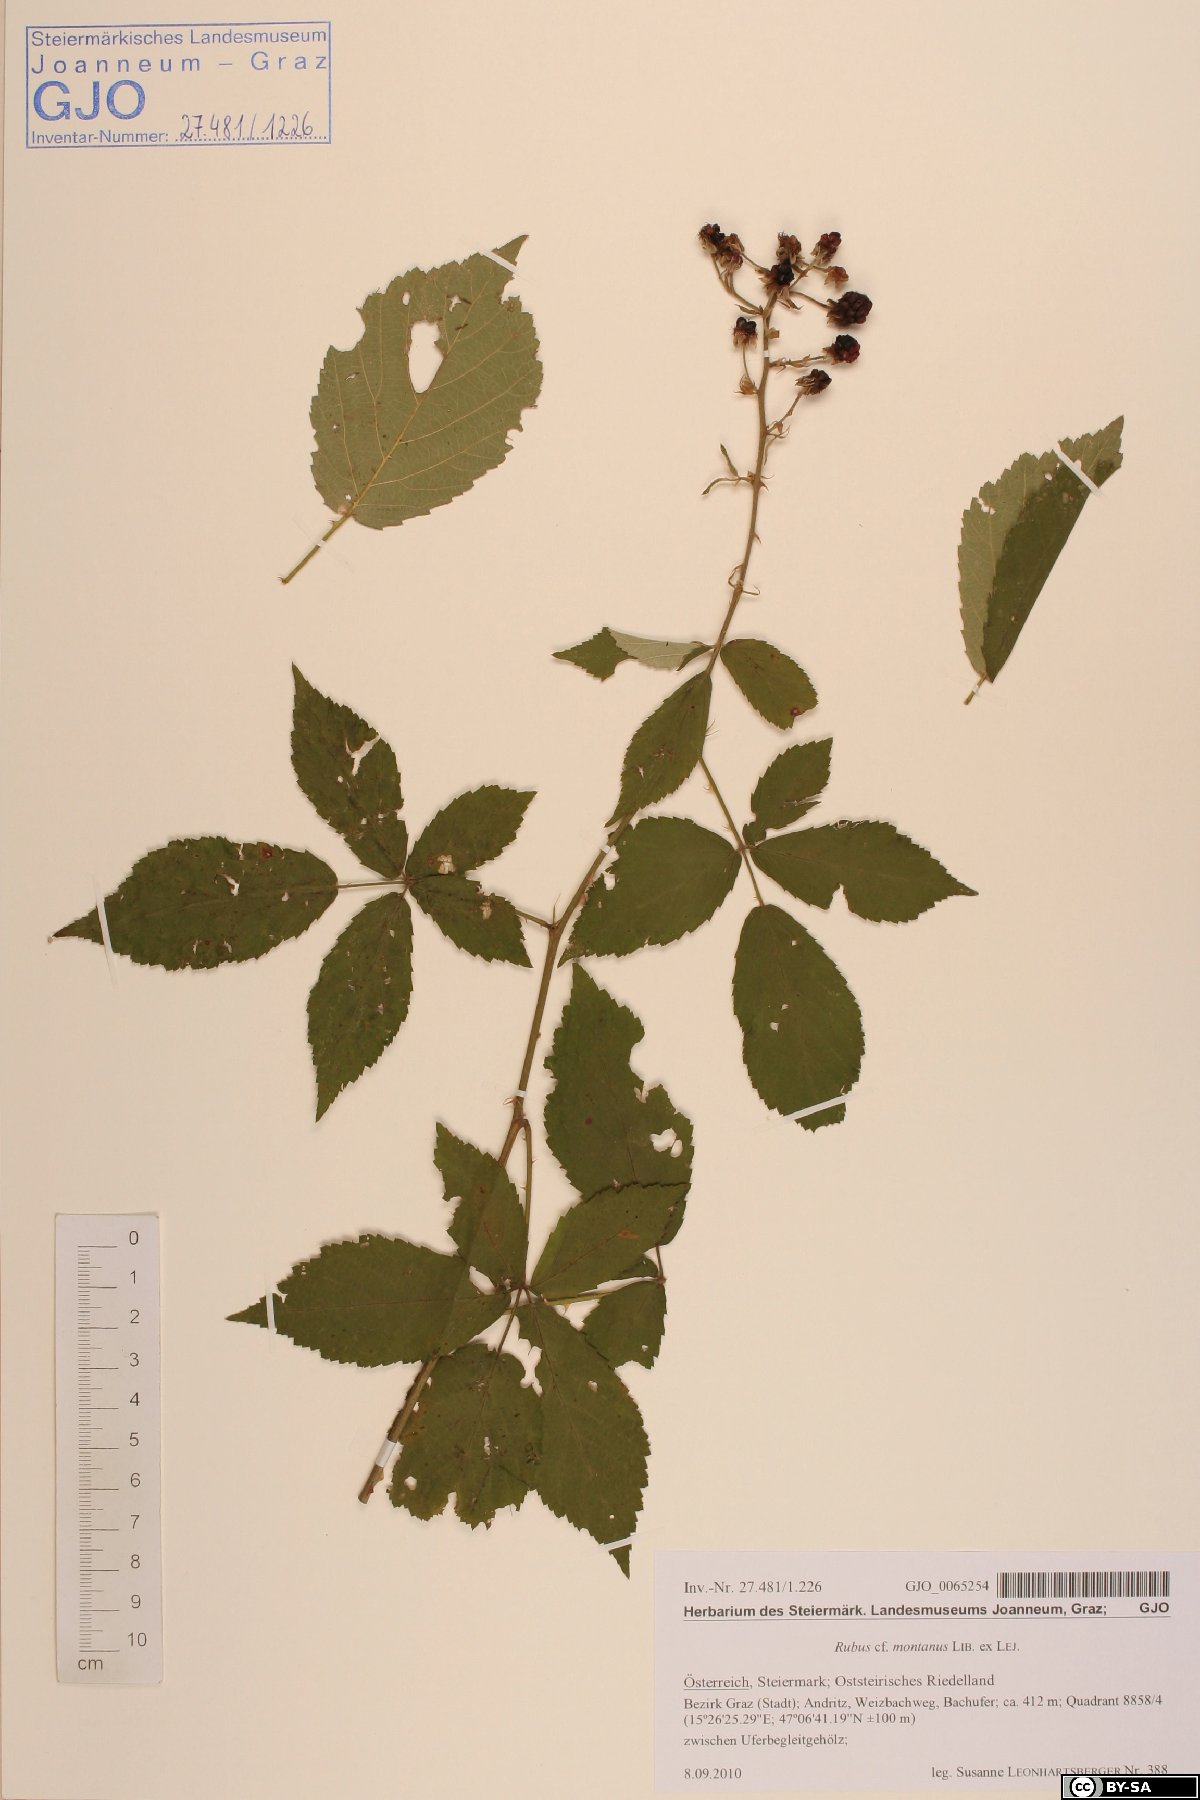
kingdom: Plantae
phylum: Tracheophyta
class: Magnoliopsida
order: Rosales
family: Rosaceae
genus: Rubus
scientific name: Rubus montanus
